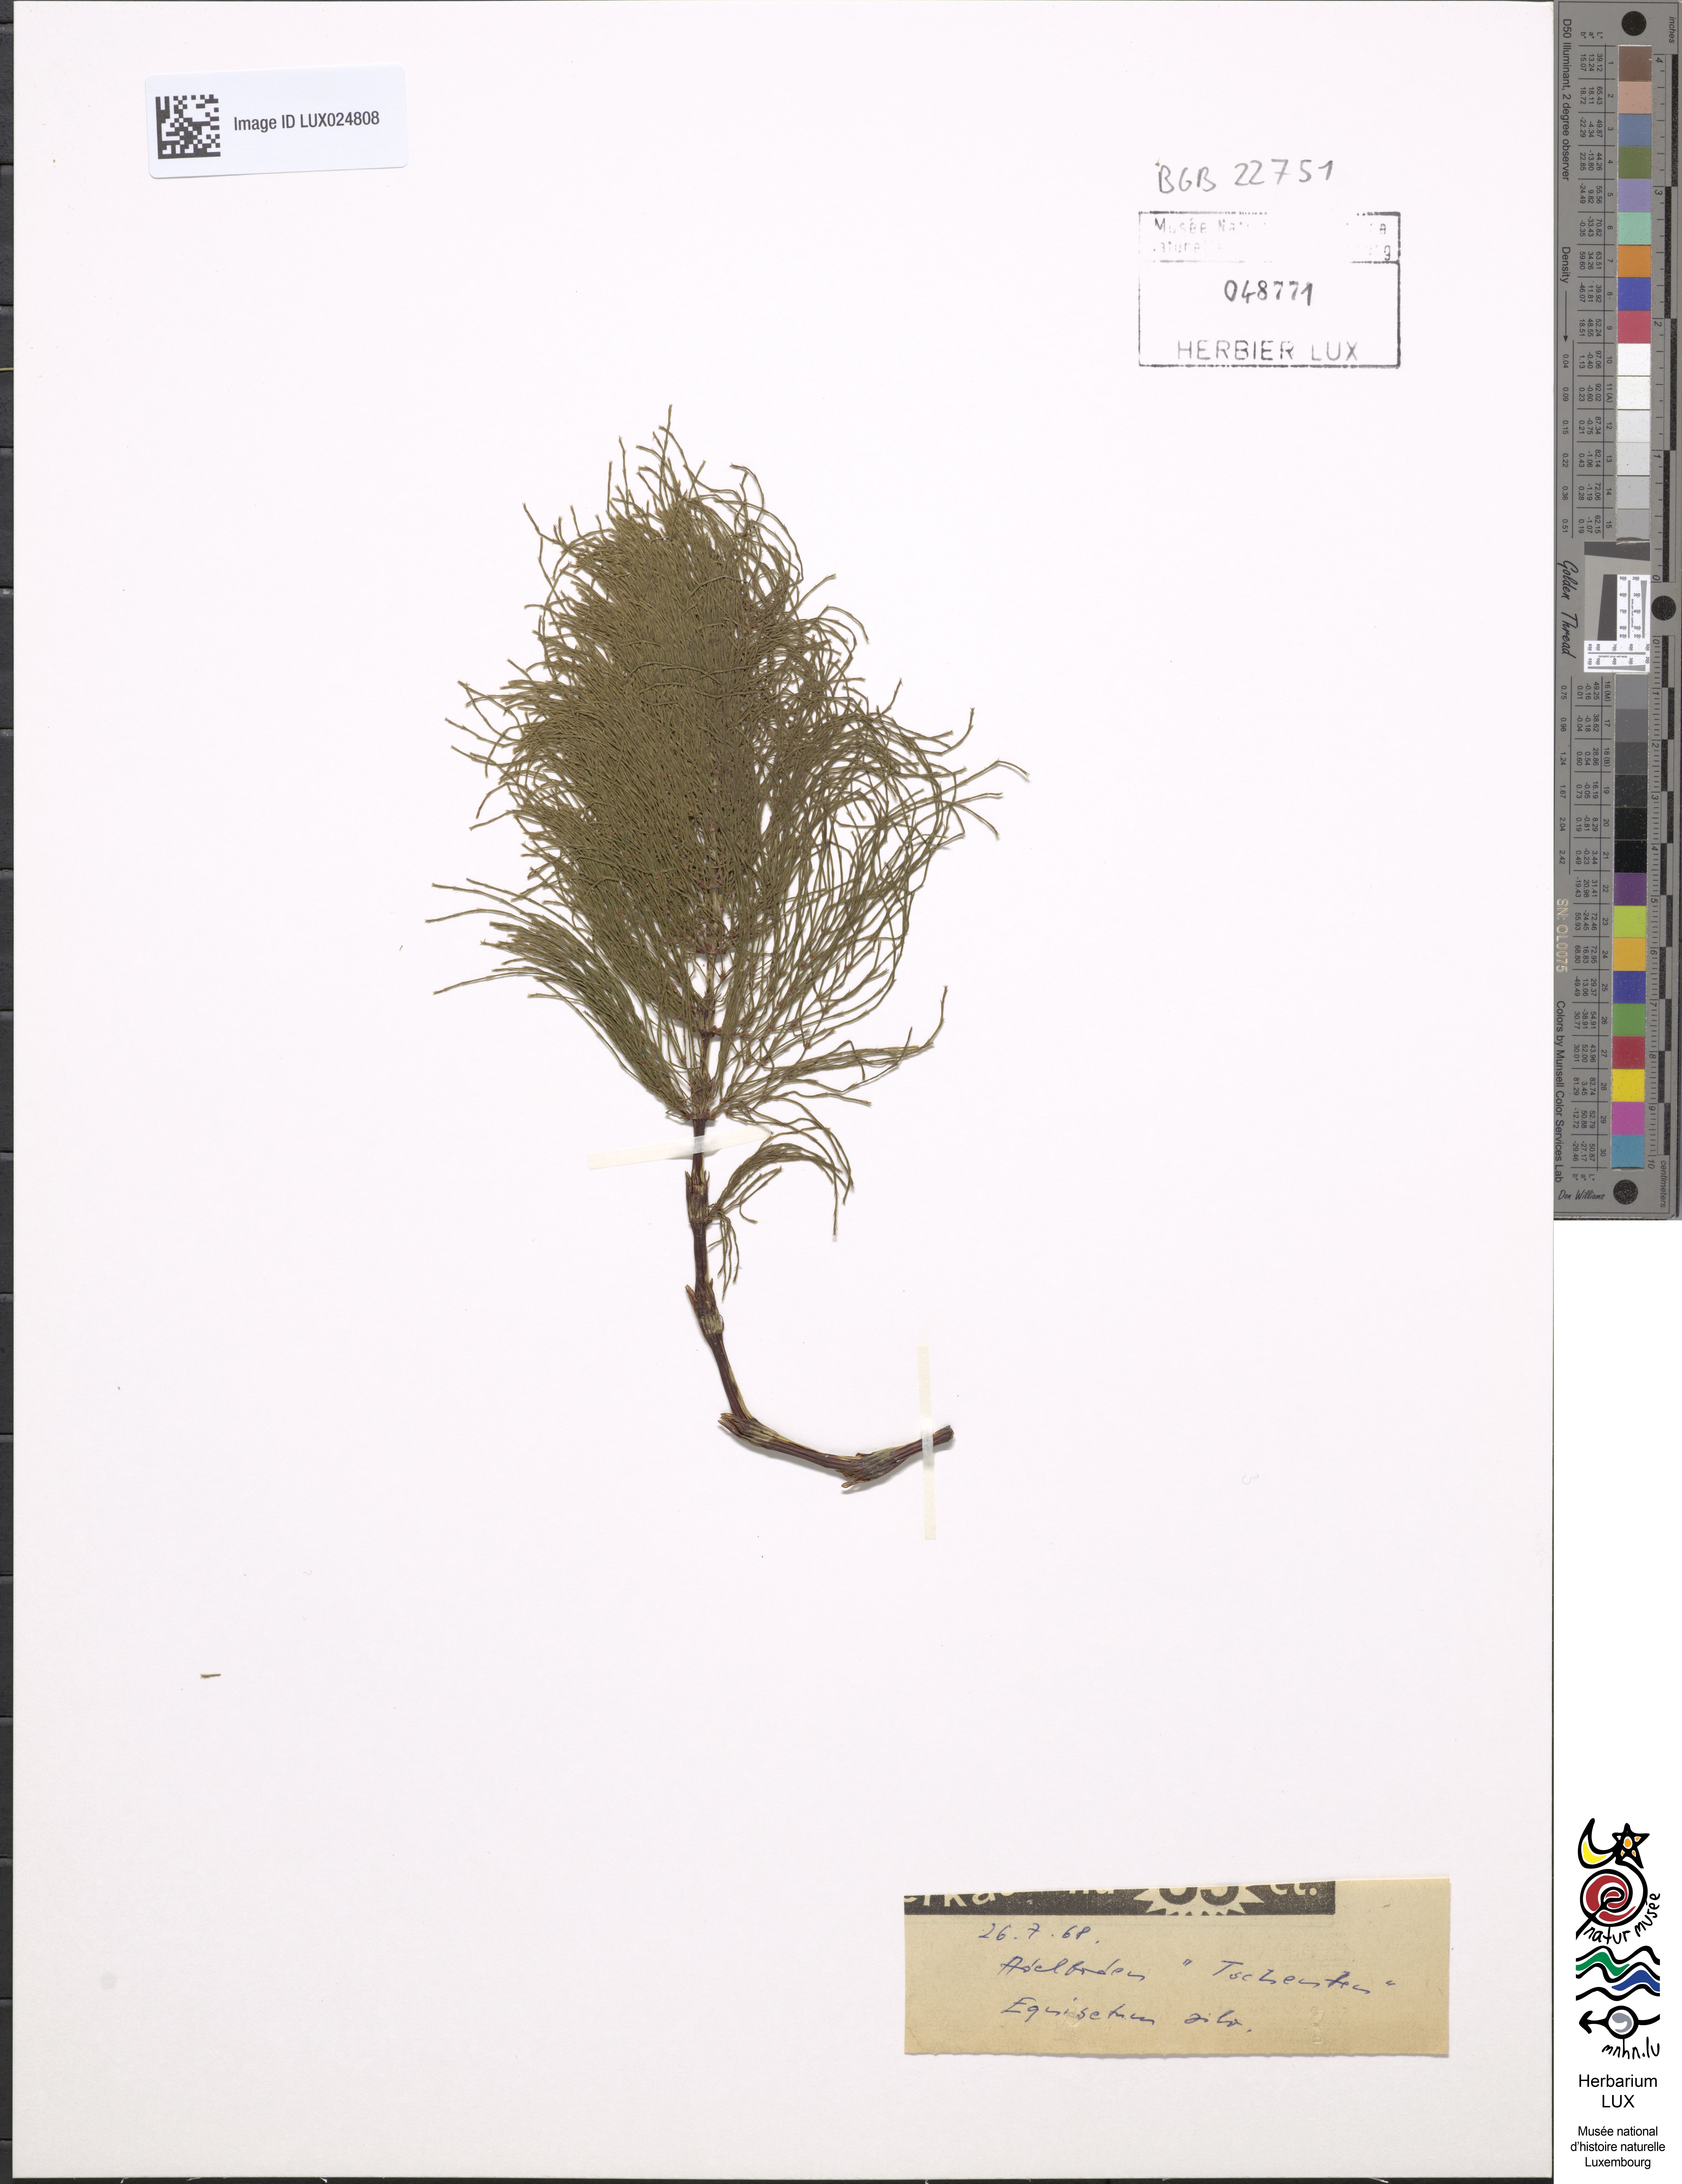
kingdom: Plantae
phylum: Tracheophyta
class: Polypodiopsida
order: Equisetales
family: Equisetaceae
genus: Equisetum
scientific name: Equisetum sylvaticum
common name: Wood horsetail
